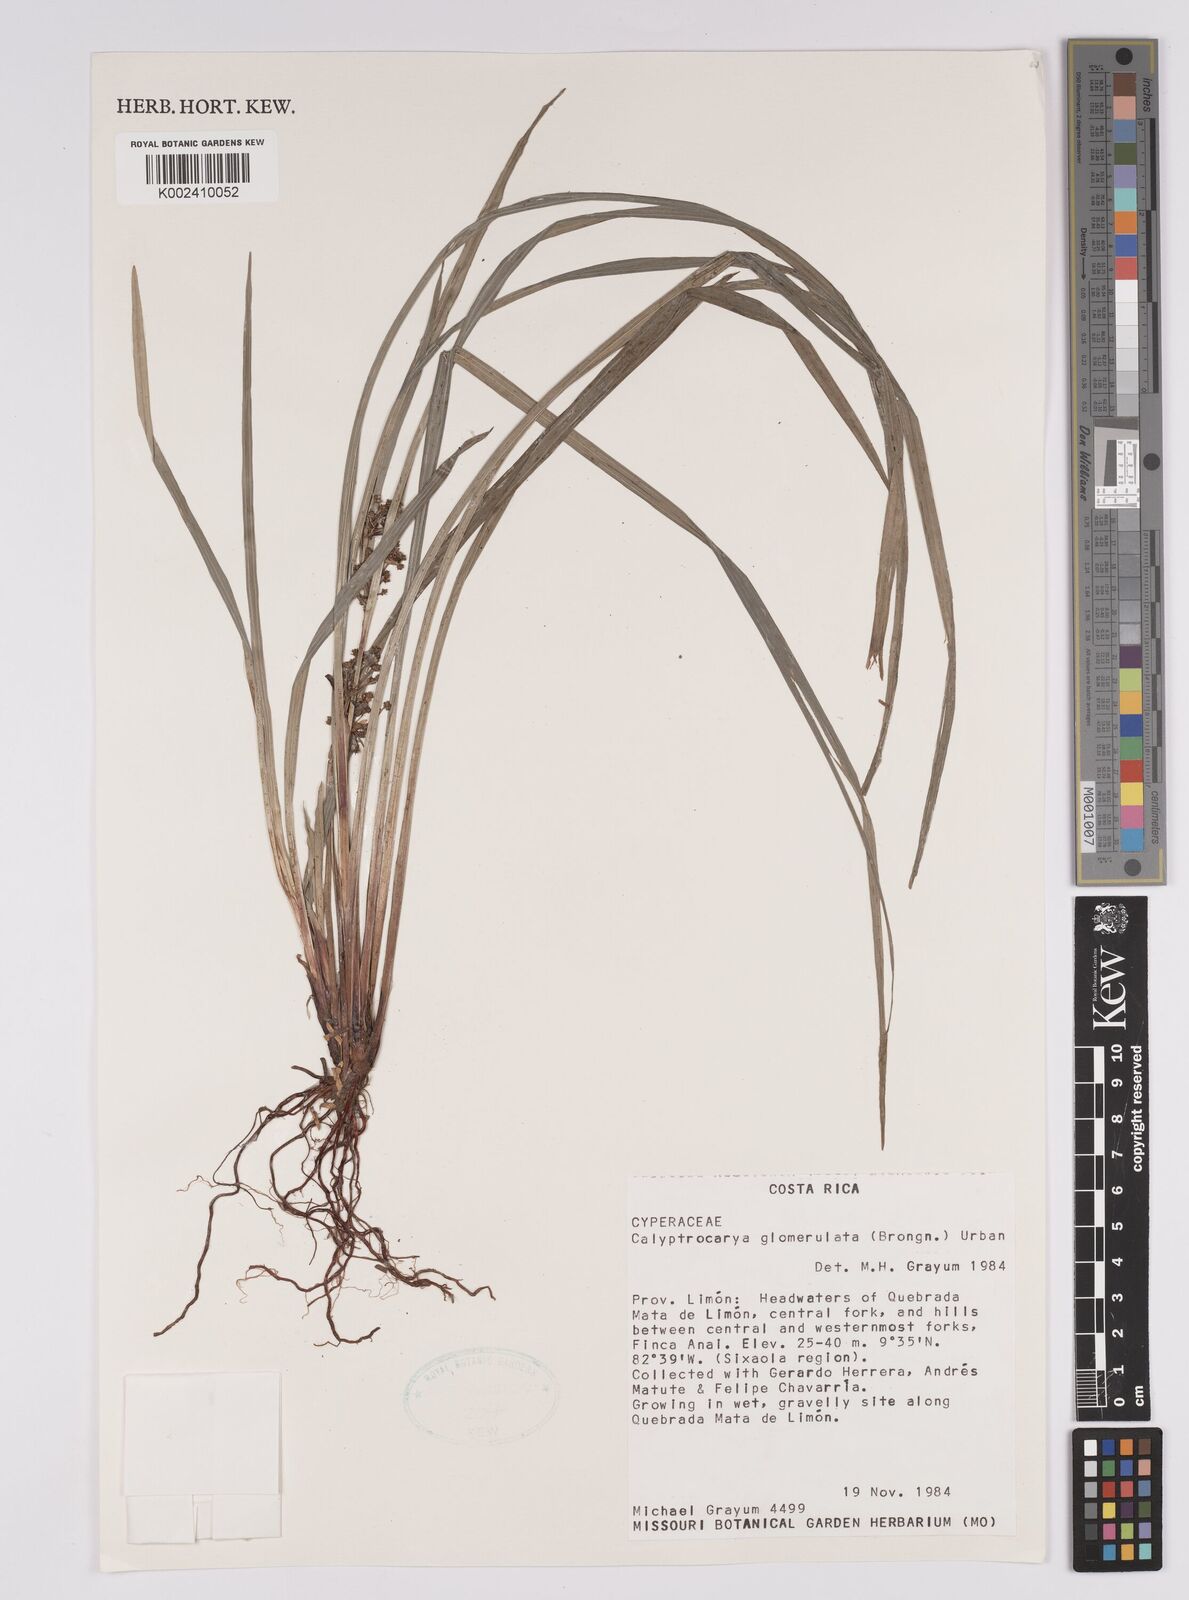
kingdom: Plantae
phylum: Tracheophyta
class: Liliopsida
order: Poales
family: Cyperaceae
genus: Calyptrocarya
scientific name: Calyptrocarya glomerulata
